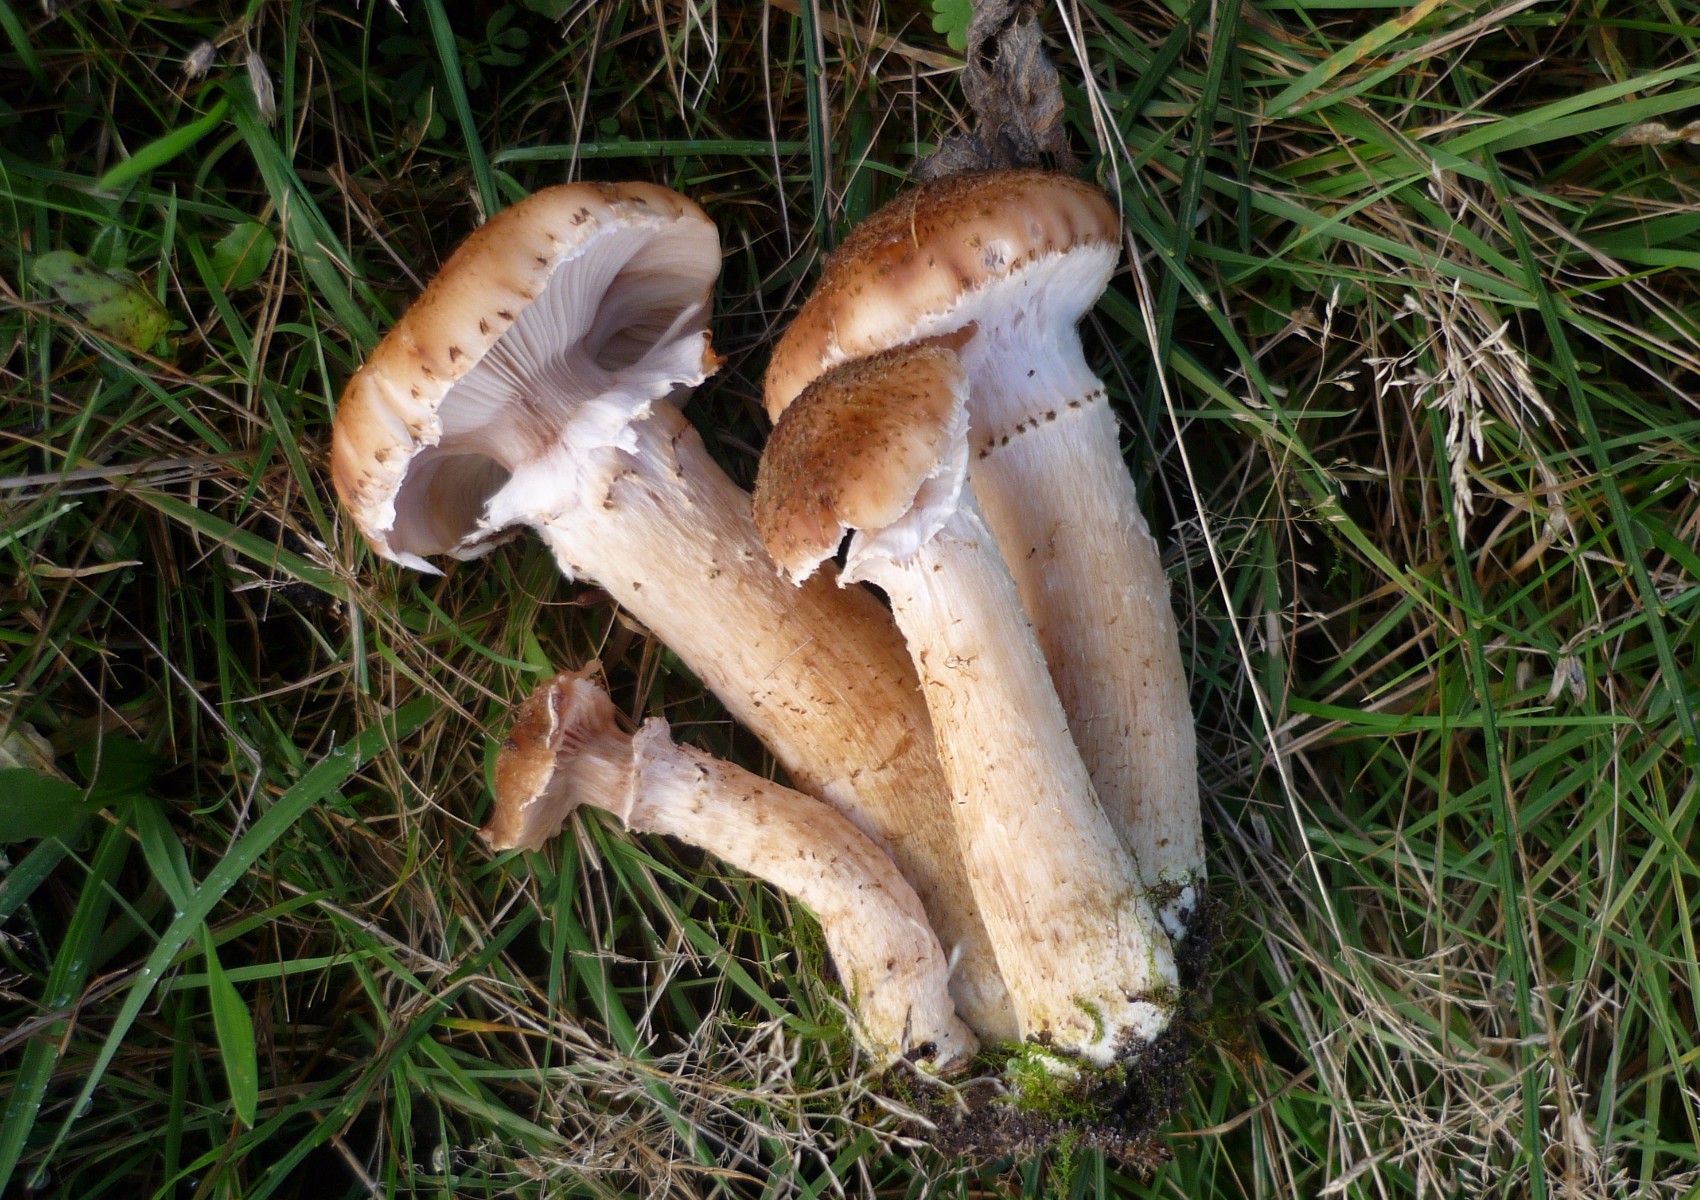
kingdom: Fungi
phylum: Basidiomycota
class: Agaricomycetes
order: Agaricales
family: Physalacriaceae
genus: Armillaria
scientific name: Armillaria ostoyae
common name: mørk honningsvamp
